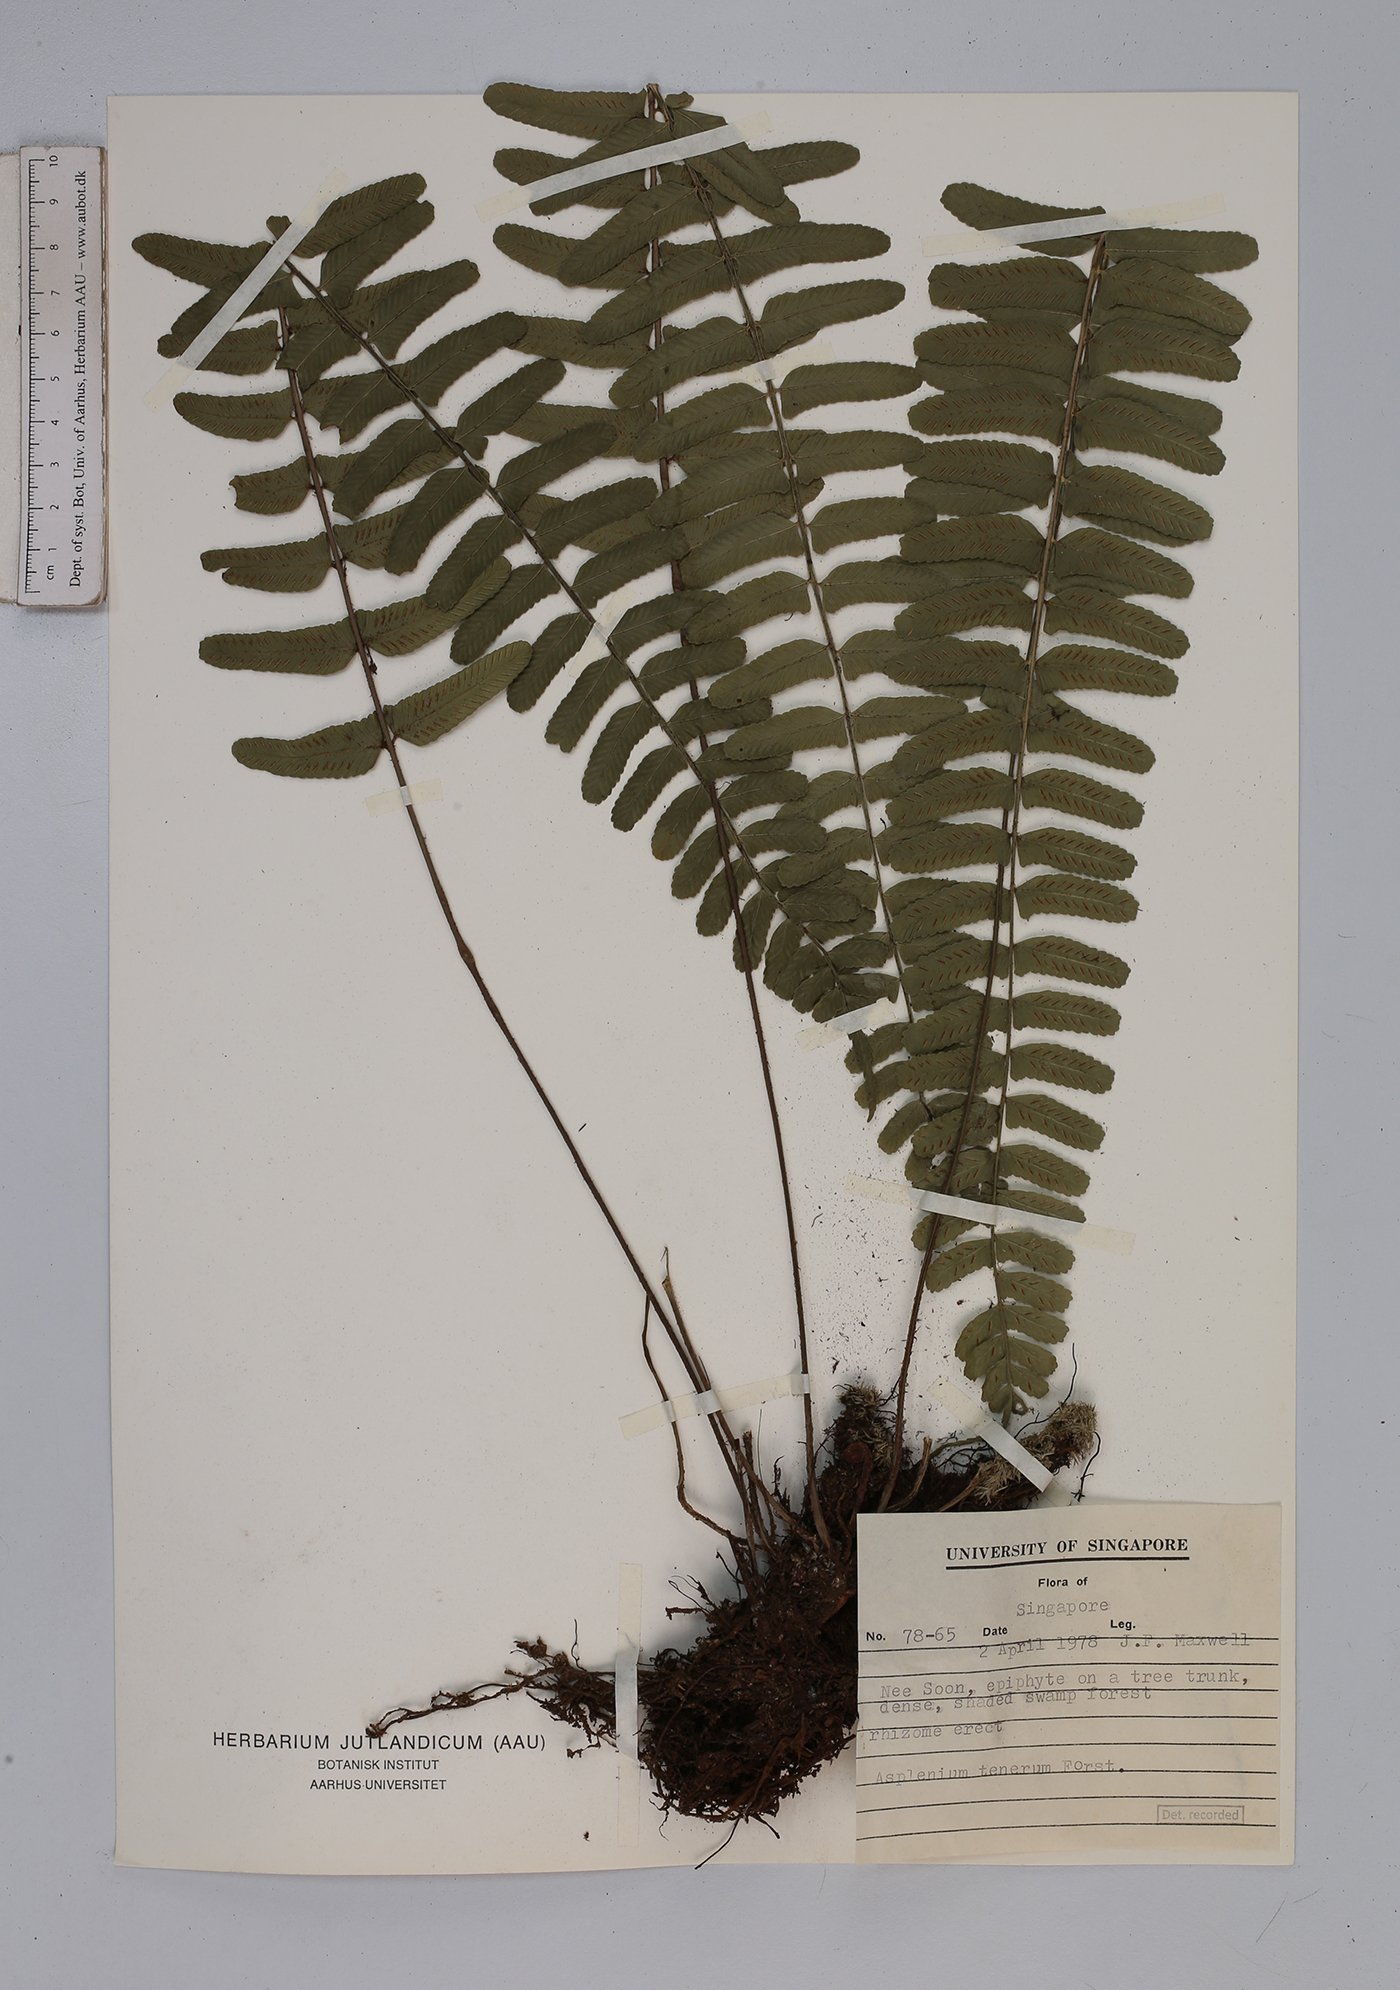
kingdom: Plantae
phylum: Tracheophyta
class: Polypodiopsida
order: Polypodiales
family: Aspleniaceae
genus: Asplenium
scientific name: Asplenium tenerum
